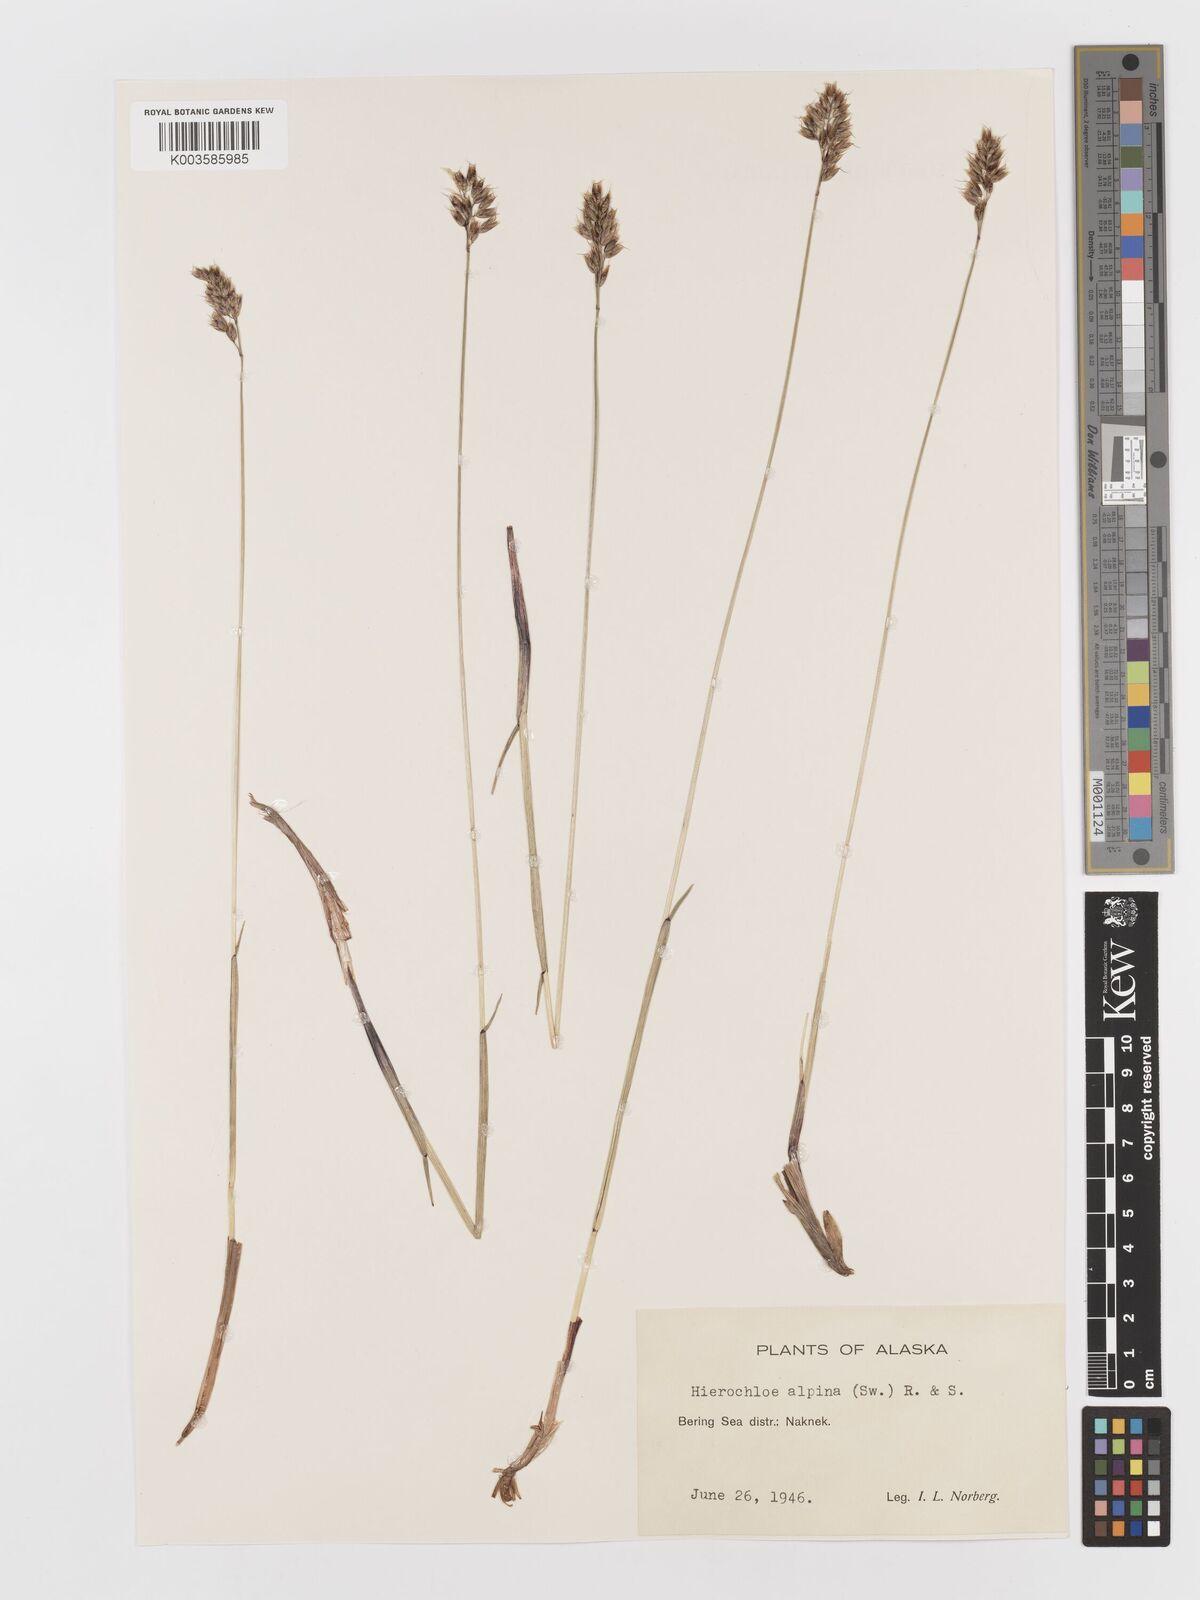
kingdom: Plantae
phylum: Tracheophyta
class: Liliopsida
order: Poales
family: Poaceae
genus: Anthoxanthum
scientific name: Anthoxanthum monticola
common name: Alpine sweetgrass
